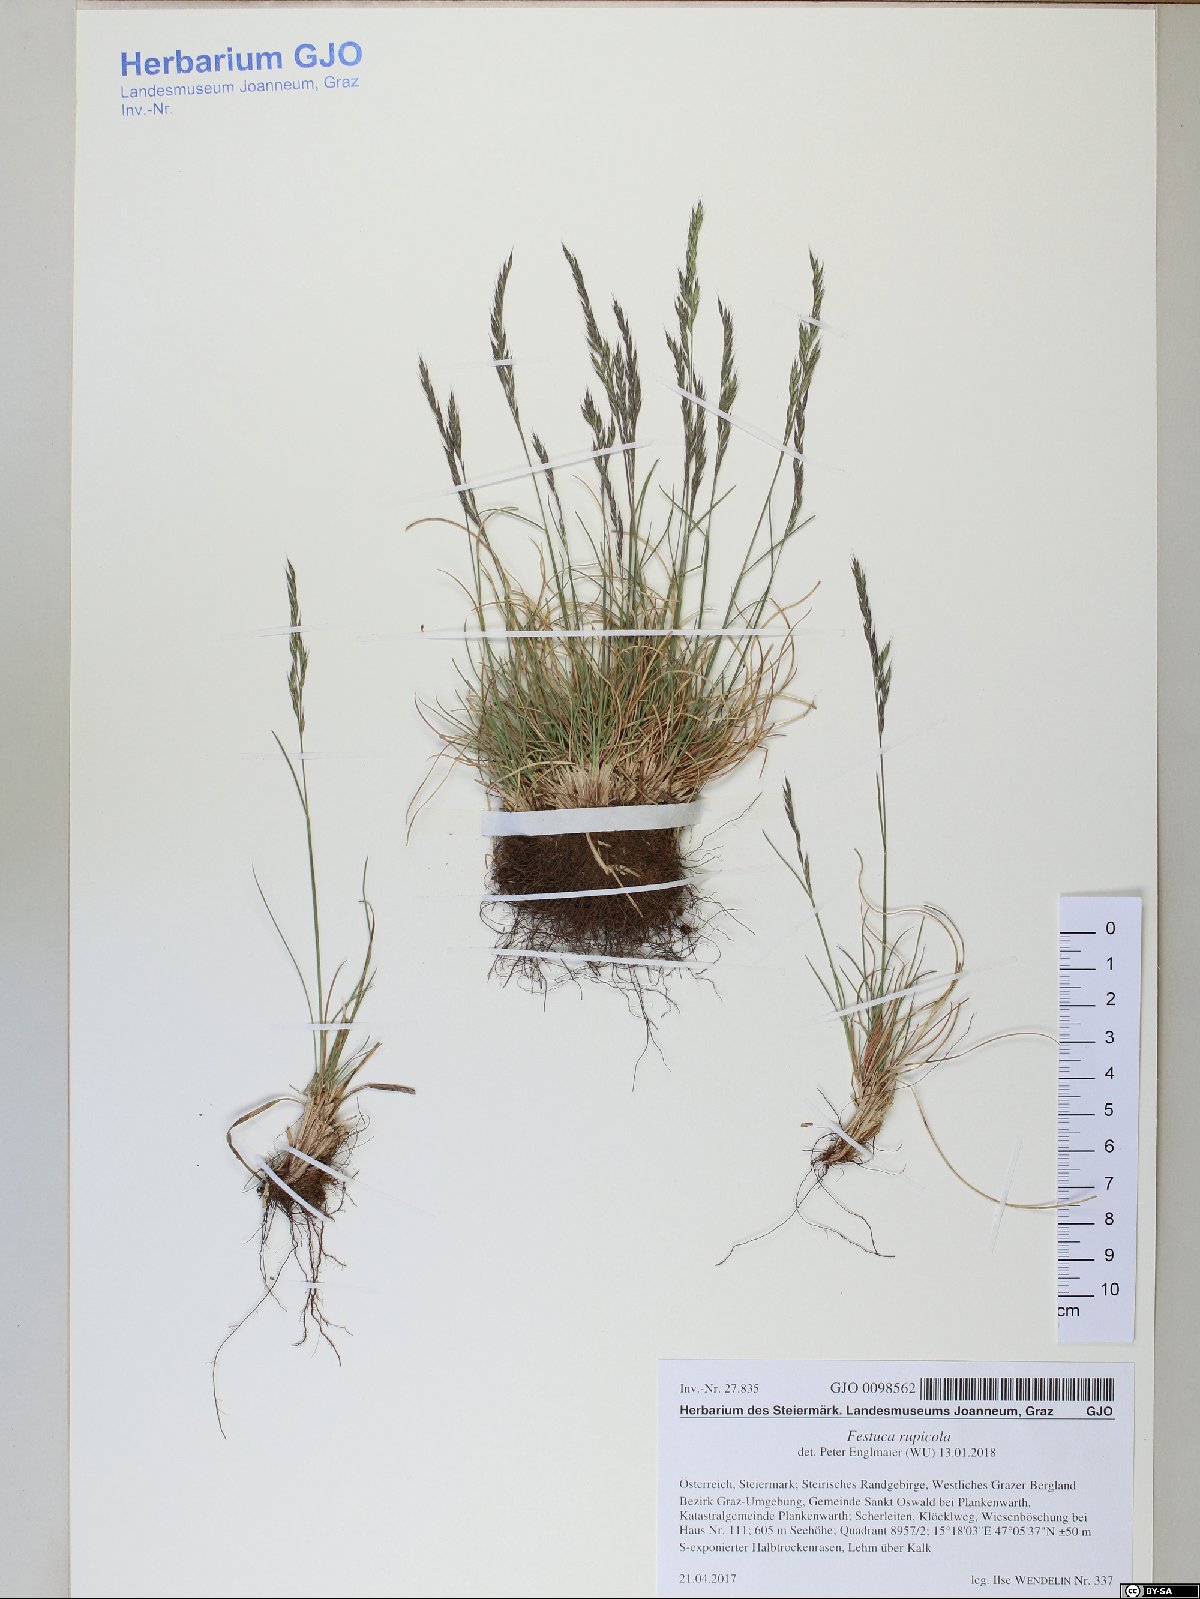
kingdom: Plantae
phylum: Tracheophyta
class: Liliopsida
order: Poales
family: Poaceae
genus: Festuca
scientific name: Festuca rupicola
